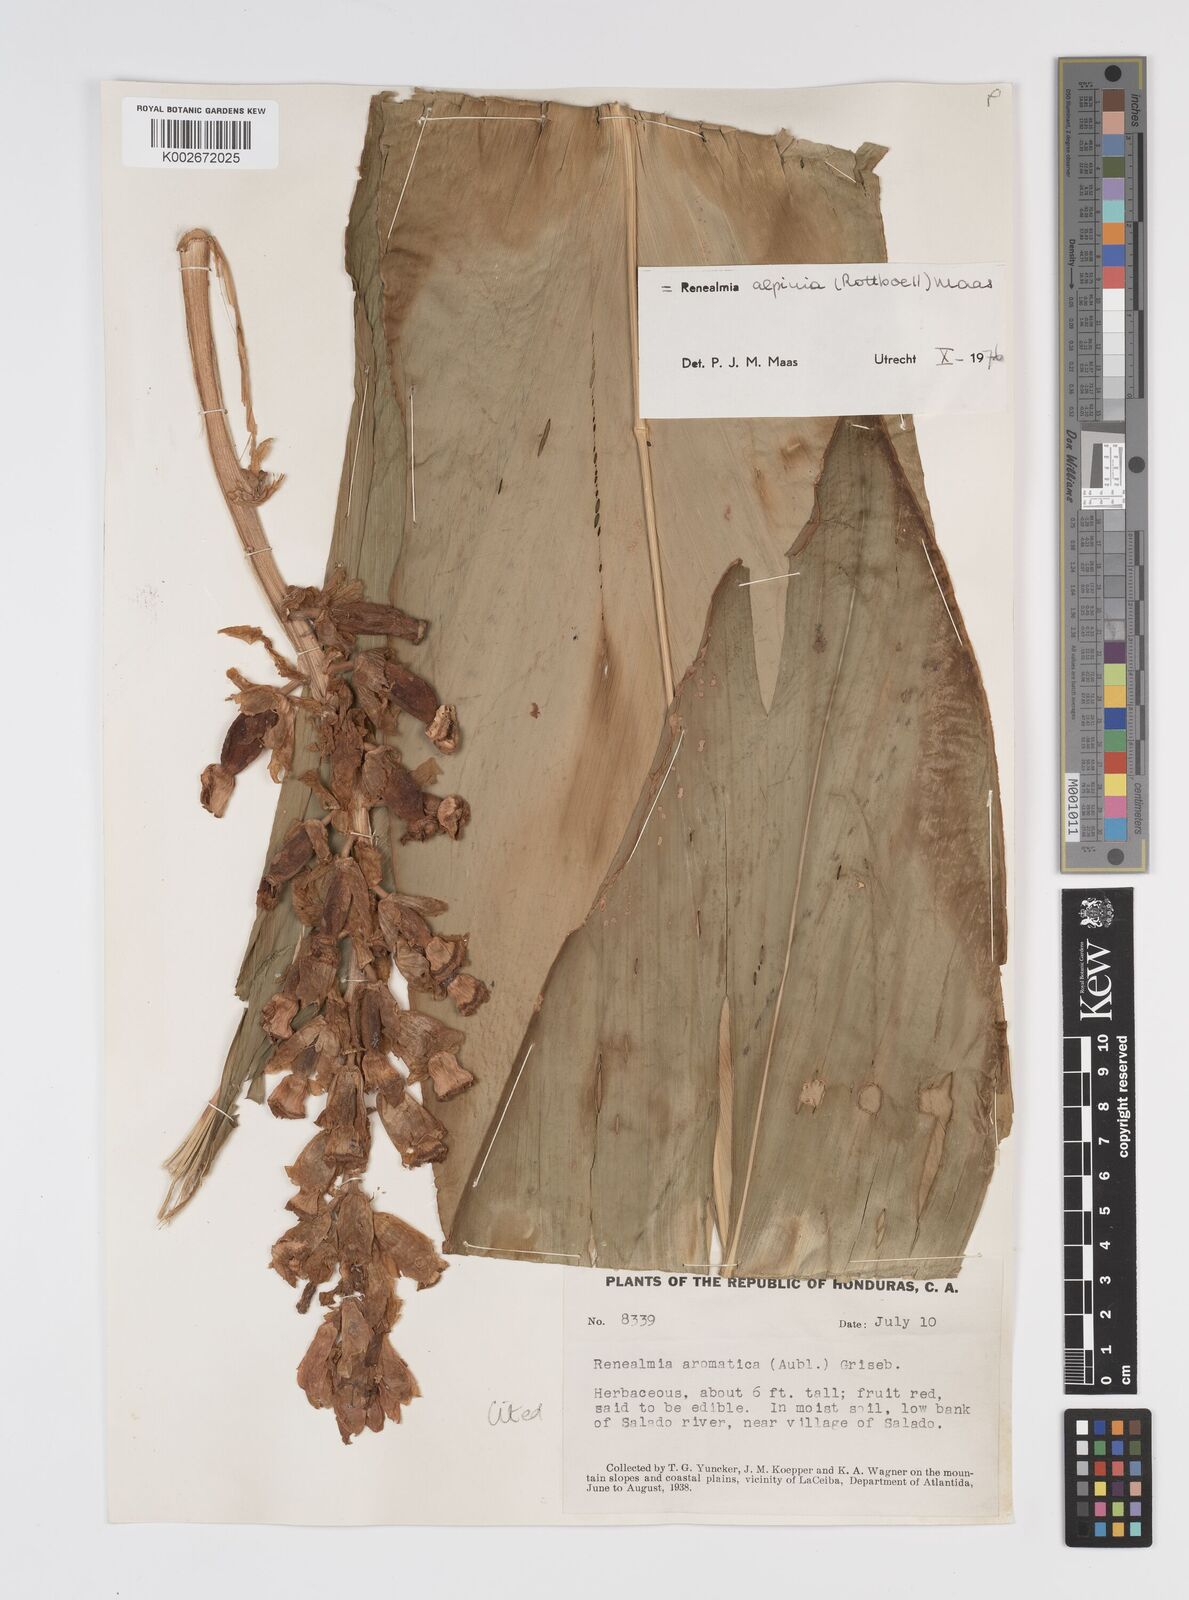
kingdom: Plantae
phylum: Tracheophyta
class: Liliopsida
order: Zingiberales
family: Zingiberaceae
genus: Renealmia
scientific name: Renealmia alpinia
